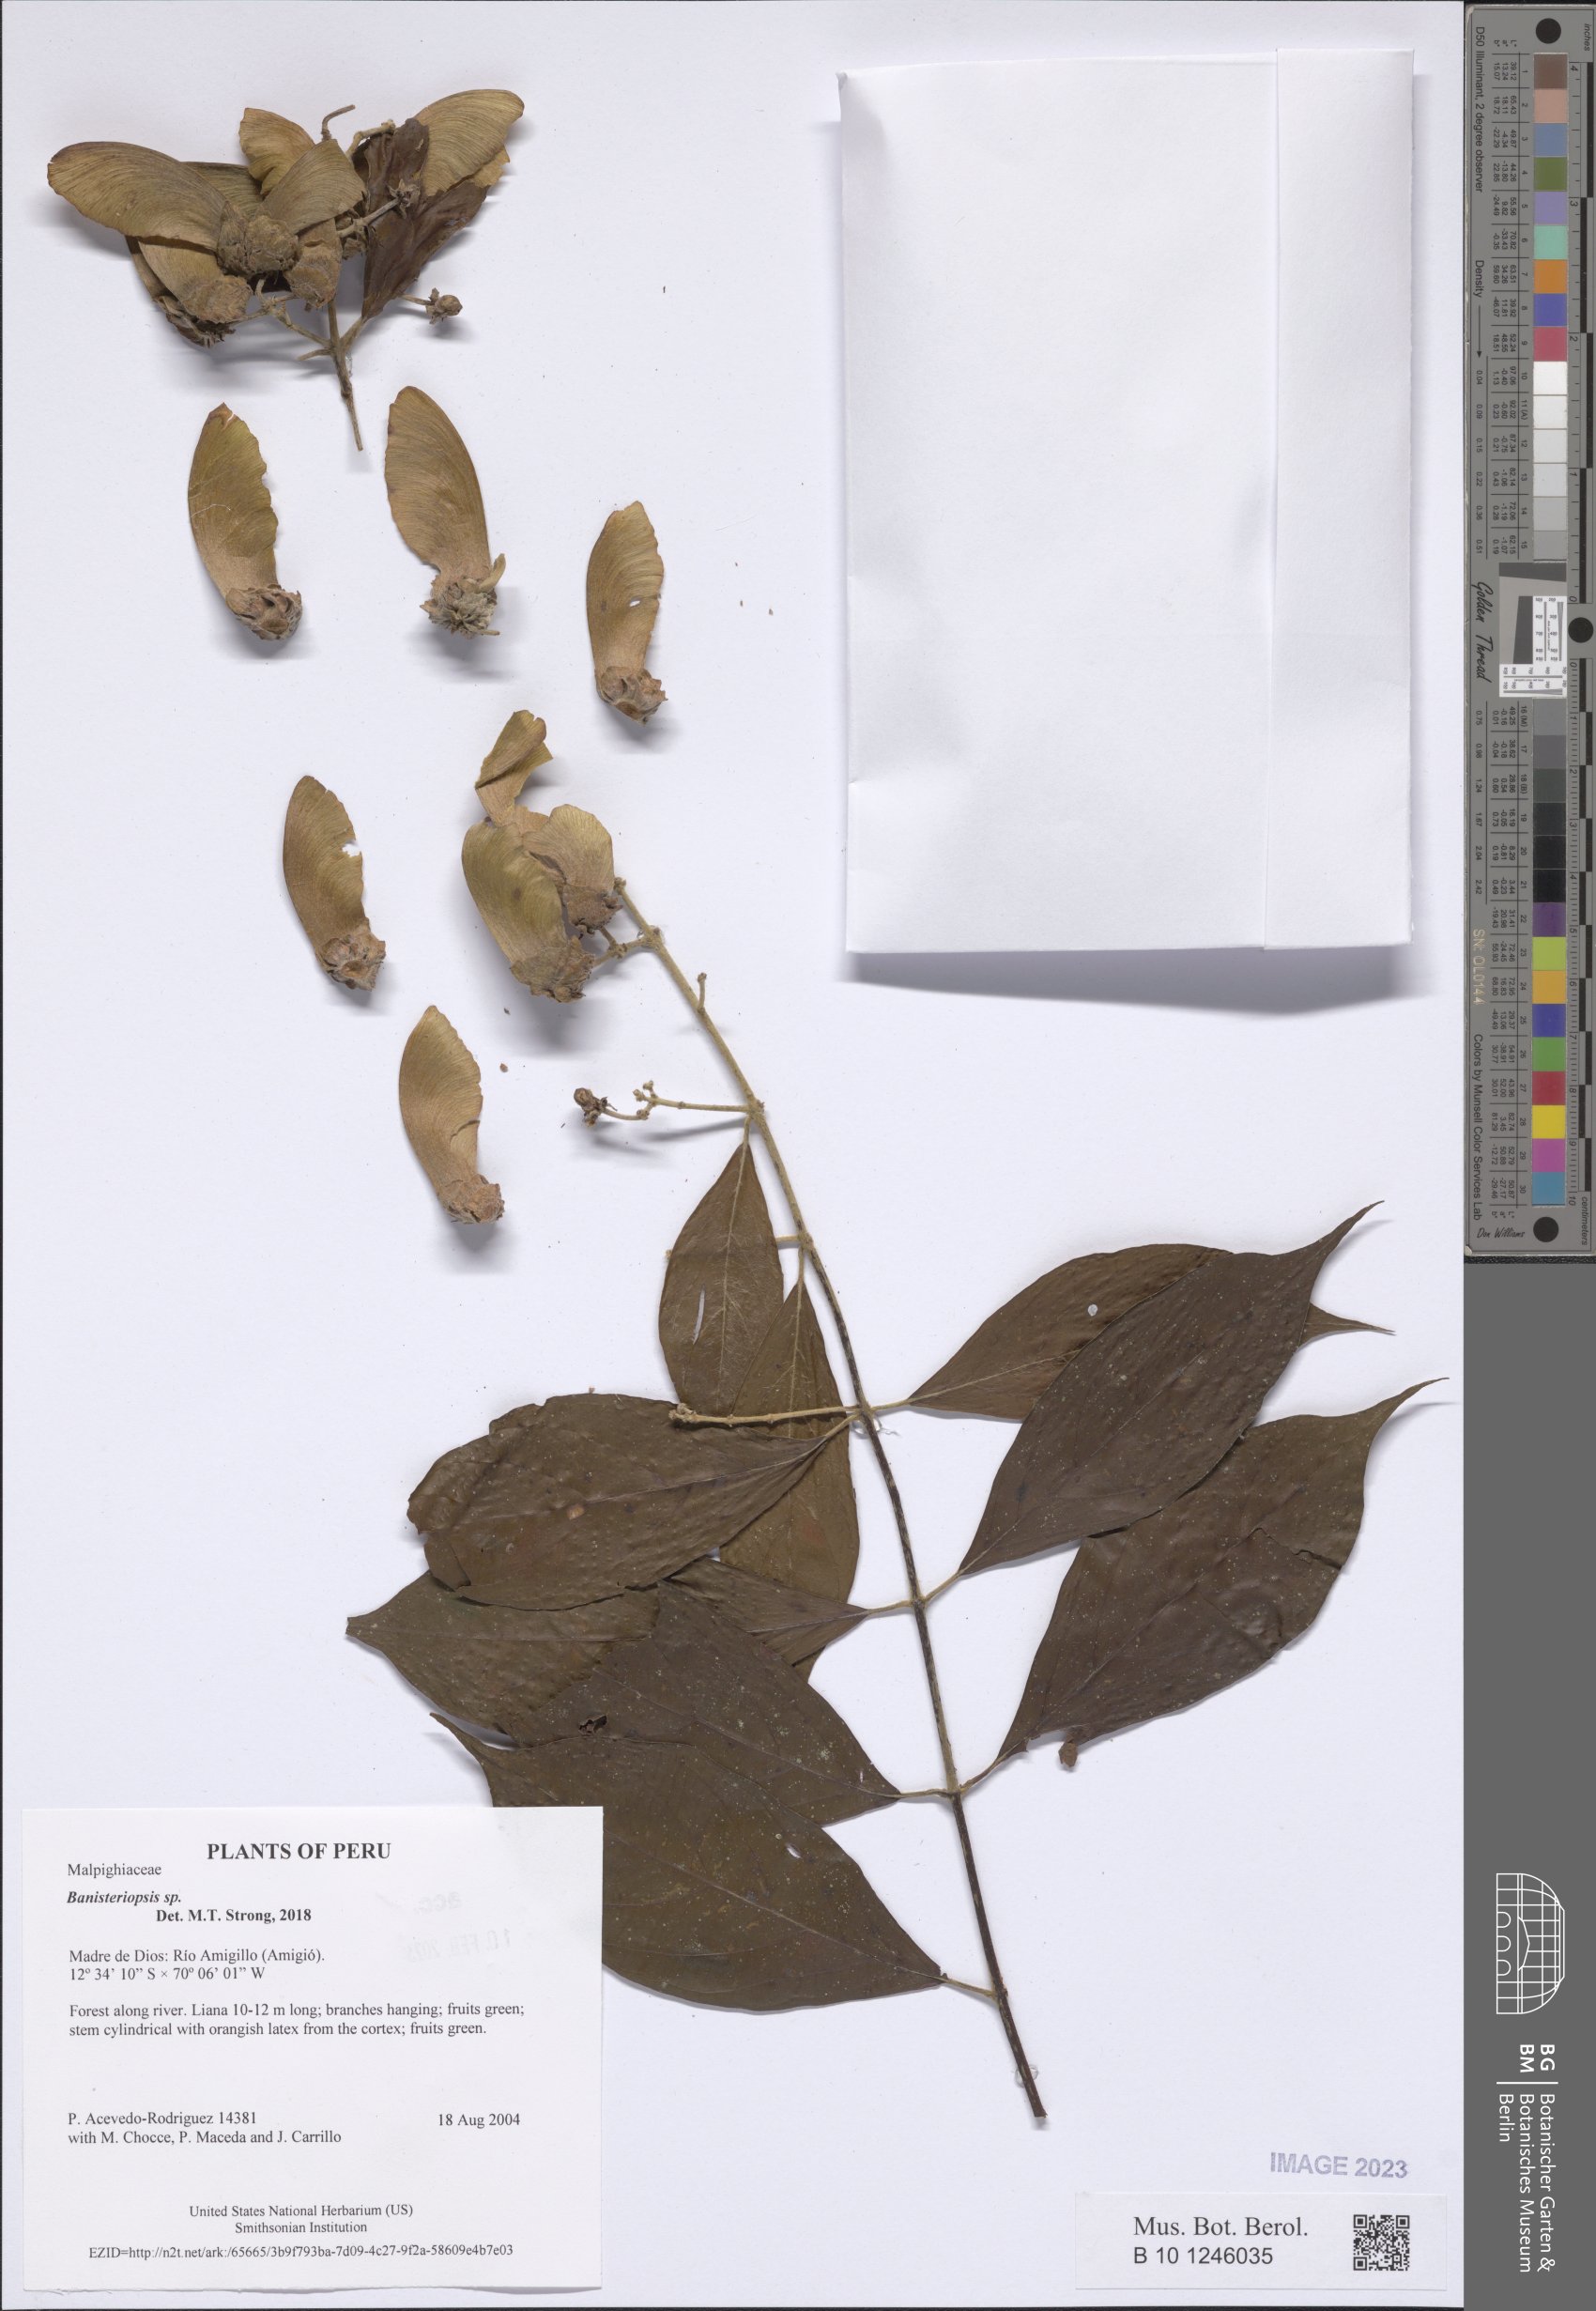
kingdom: Plantae
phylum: Tracheophyta
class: Magnoliopsida
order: Malpighiales
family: Malpighiaceae
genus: Banisteriopsis
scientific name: Banisteriopsis
